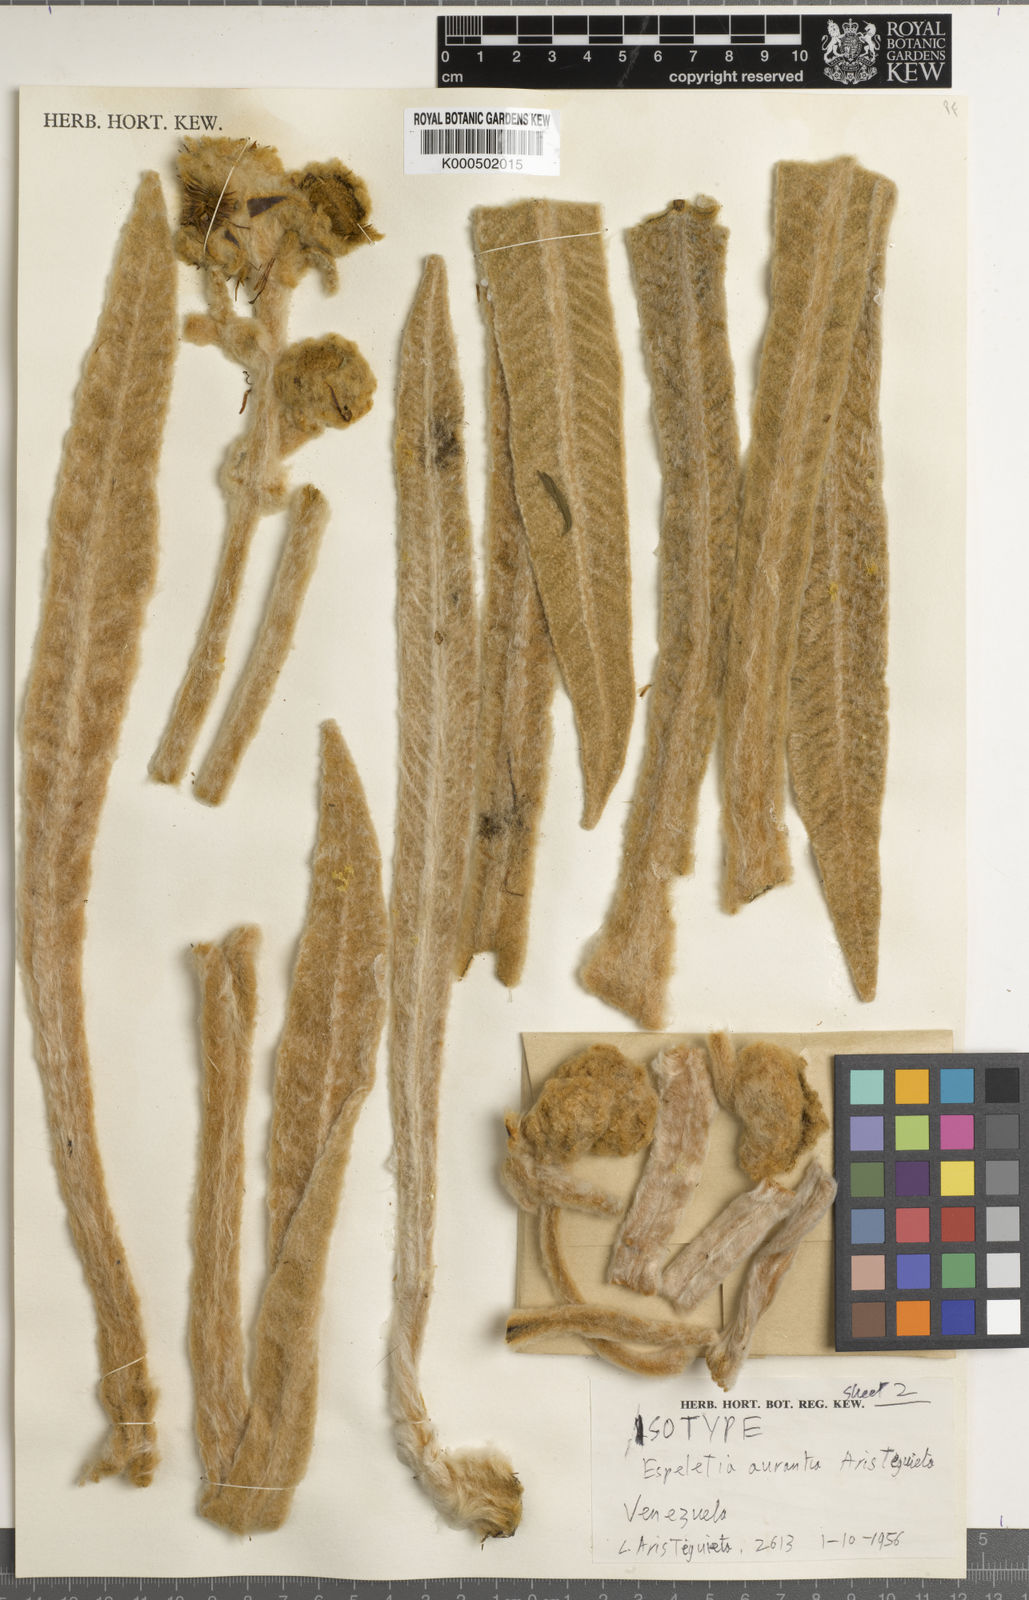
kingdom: Plantae
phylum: Tracheophyta
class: Magnoliopsida
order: Asterales
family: Asteraceae
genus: Espeletia
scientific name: Espeletia aurantia
